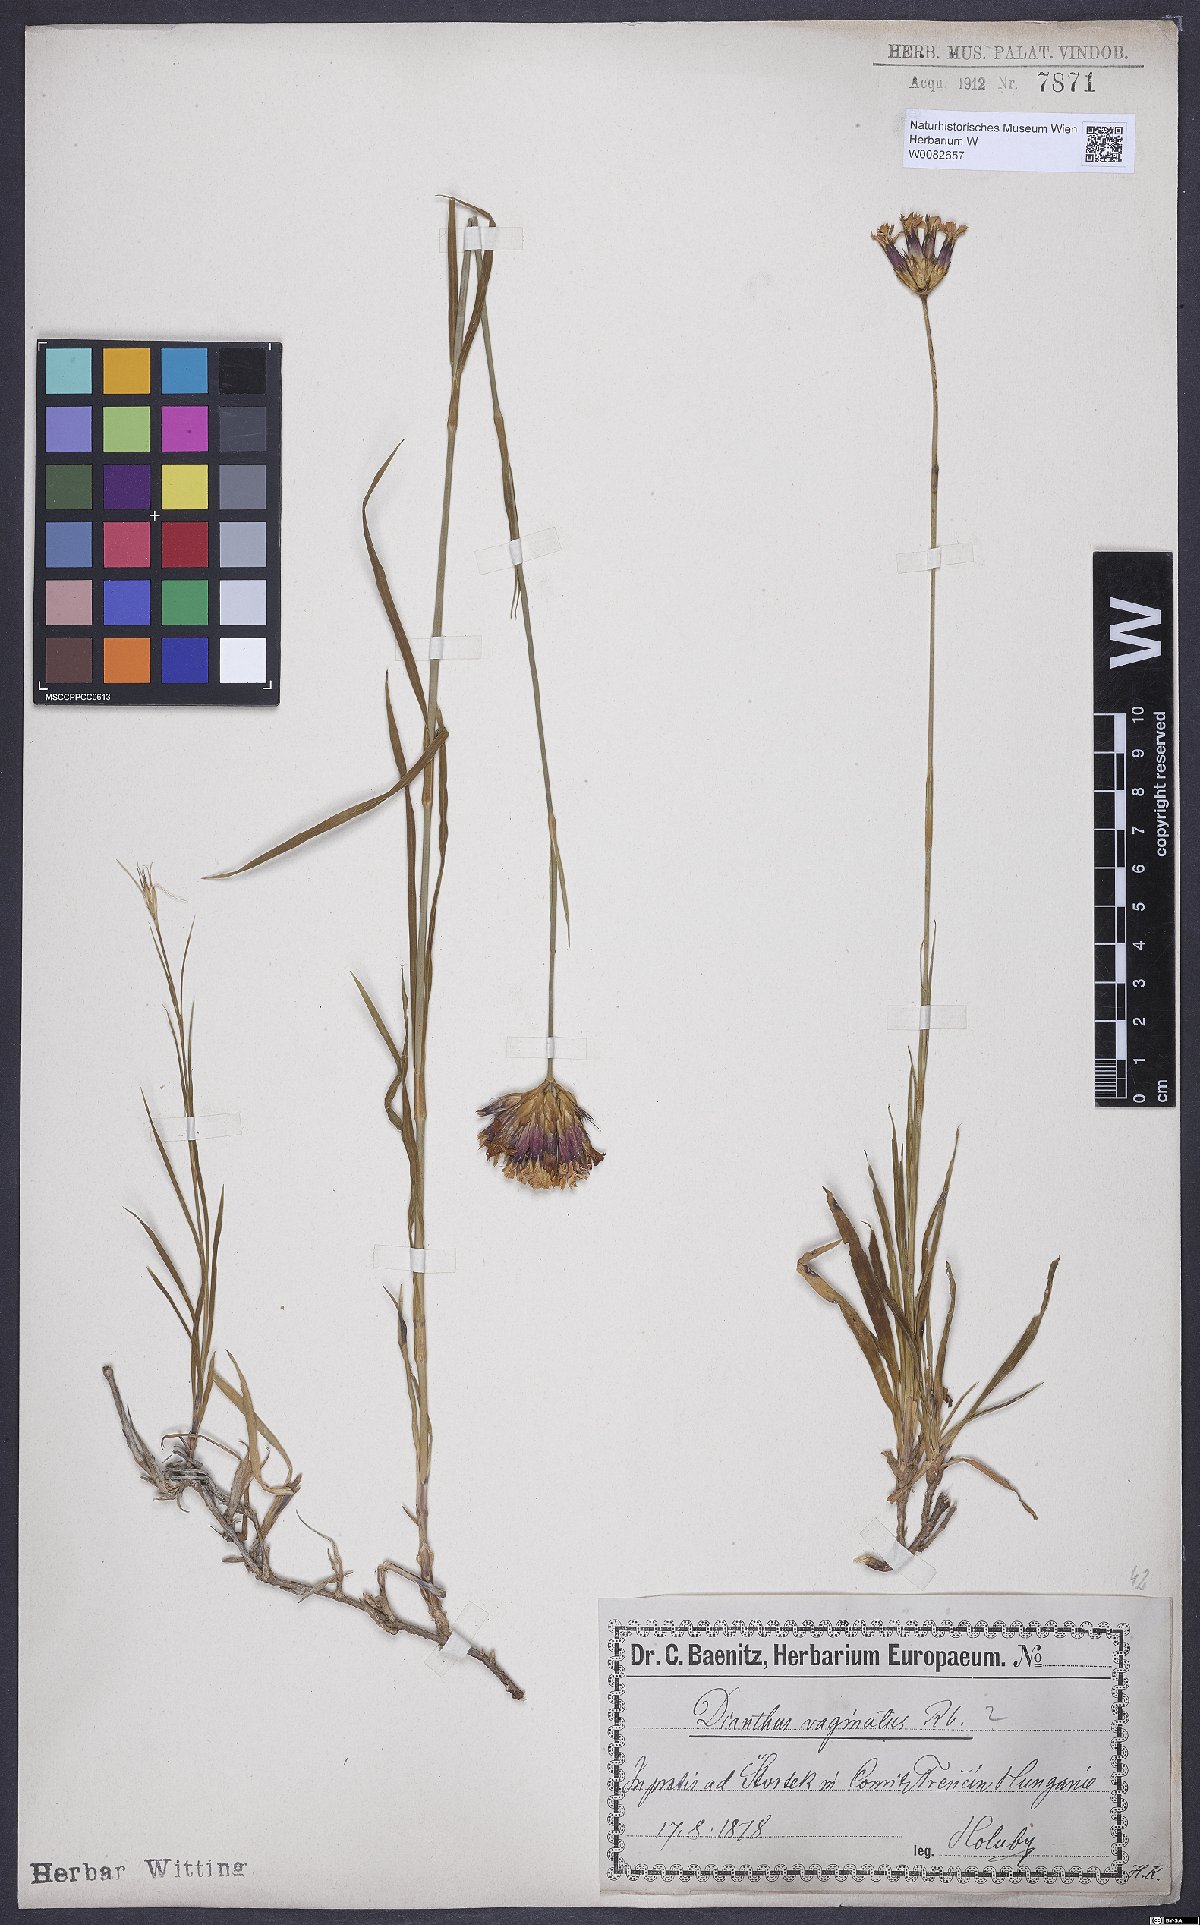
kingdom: Plantae
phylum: Tracheophyta
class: Magnoliopsida
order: Caryophyllales
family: Caryophyllaceae
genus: Dianthus
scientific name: Dianthus carthusianorum
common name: Carthusian pink
